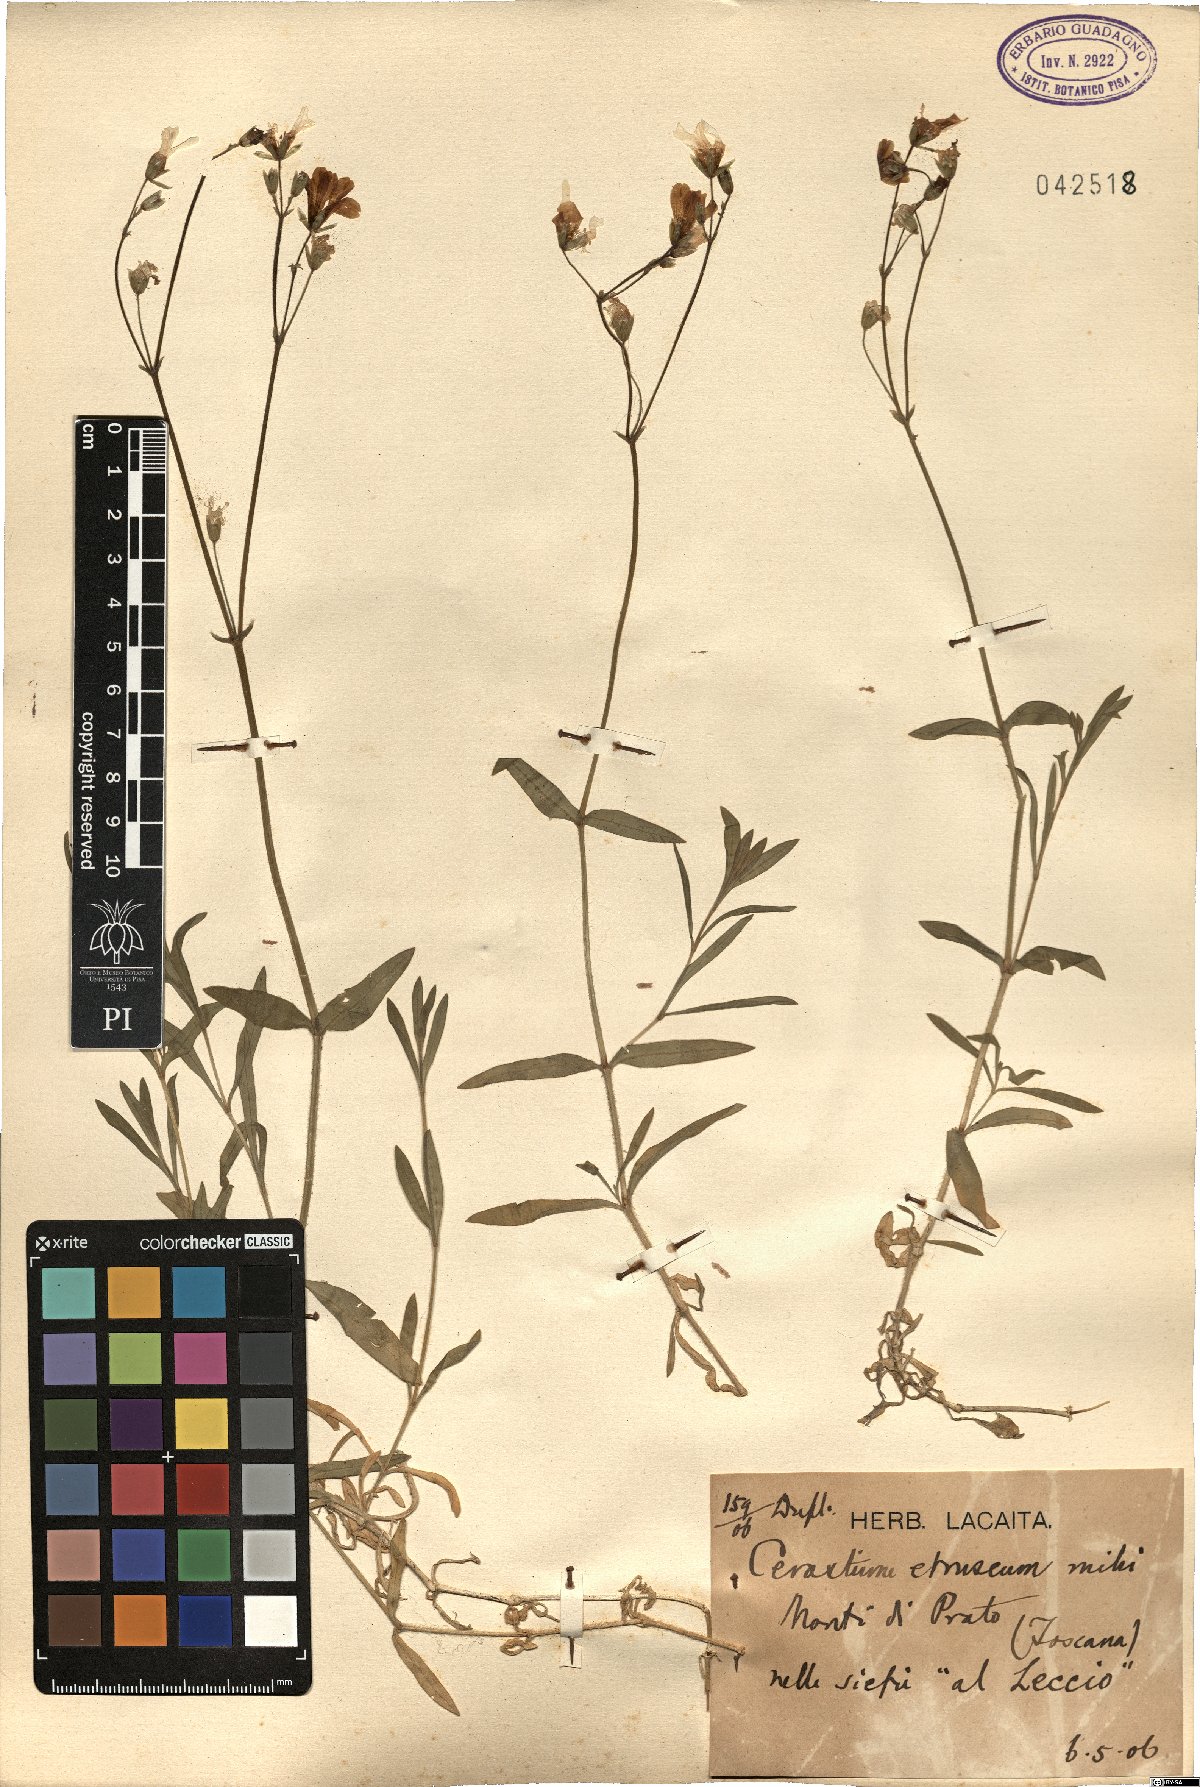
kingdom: Plantae
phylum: Tracheophyta
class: Magnoliopsida
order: Caryophyllales
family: Caryophyllaceae
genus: Cerastium
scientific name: Cerastium scaranii
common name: Italian mouse-ear
